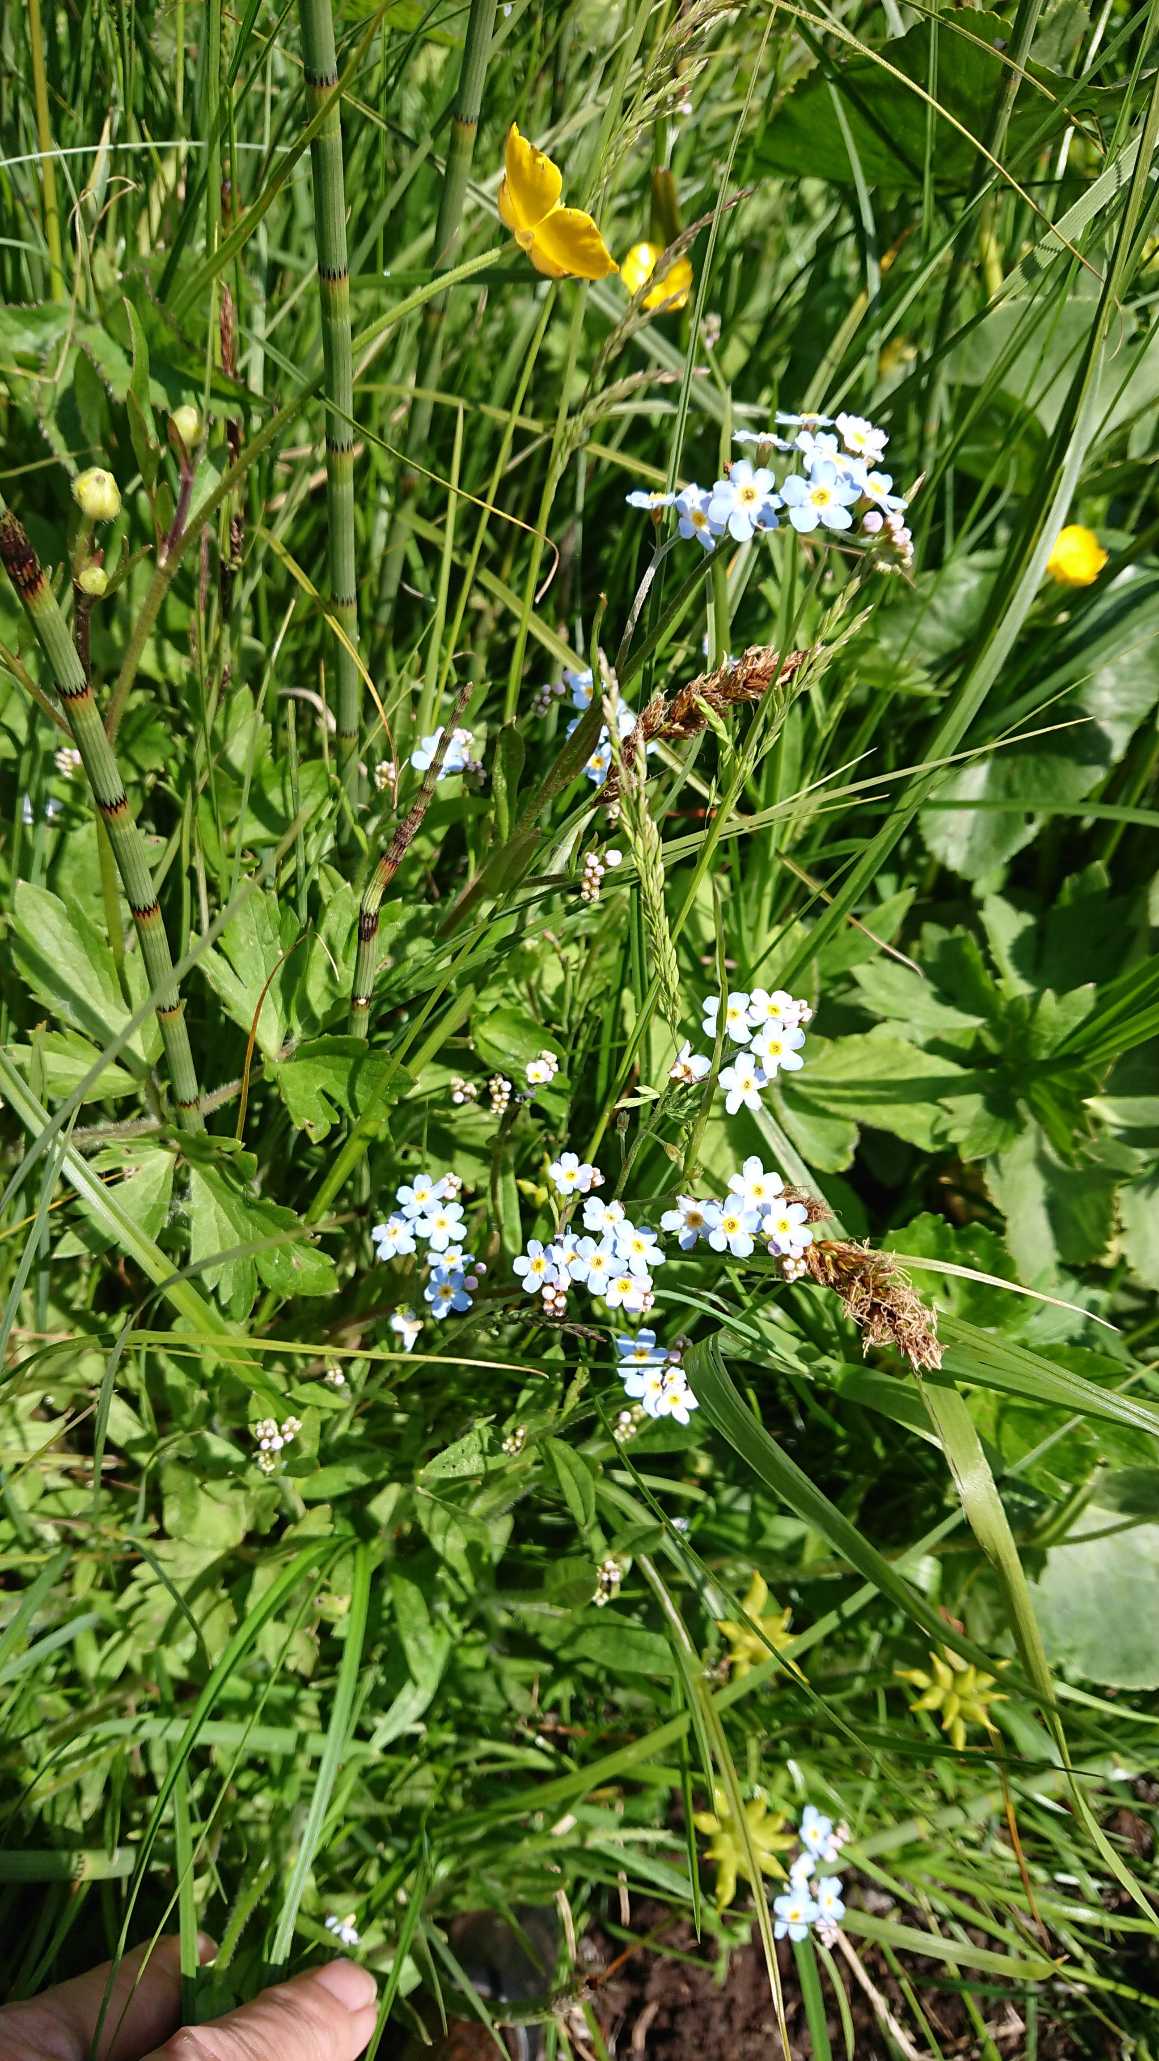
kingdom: Plantae
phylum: Tracheophyta
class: Magnoliopsida
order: Boraginales
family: Boraginaceae
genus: Myosotis
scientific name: Myosotis scorpioides
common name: Eng-forglemmigej
